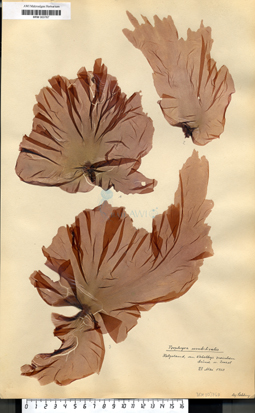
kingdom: Plantae
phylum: Rhodophyta
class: Bangiophyceae
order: Bangiales
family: Bangiaceae
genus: Porphyra
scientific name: Porphyra umbilicalis
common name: Purple laver
